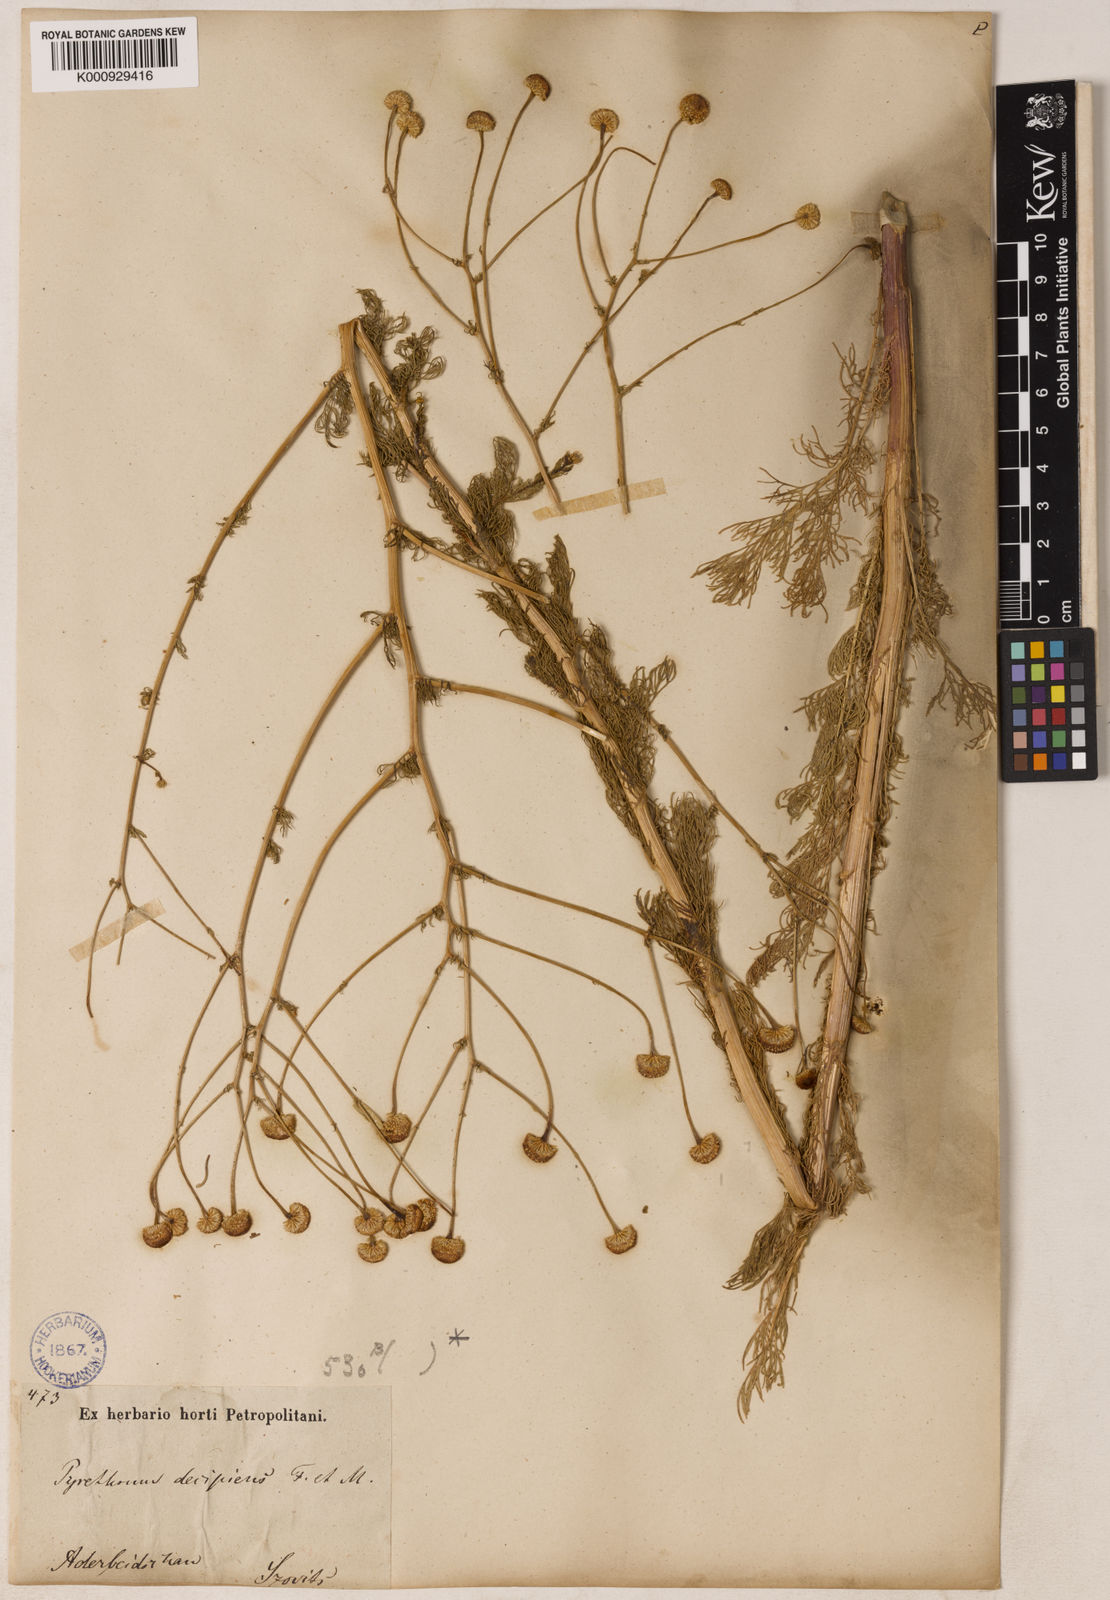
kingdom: Plantae
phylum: Tracheophyta
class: Magnoliopsida
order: Asterales
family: Asteraceae
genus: Tripleurospermum
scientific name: Tripleurospermum
